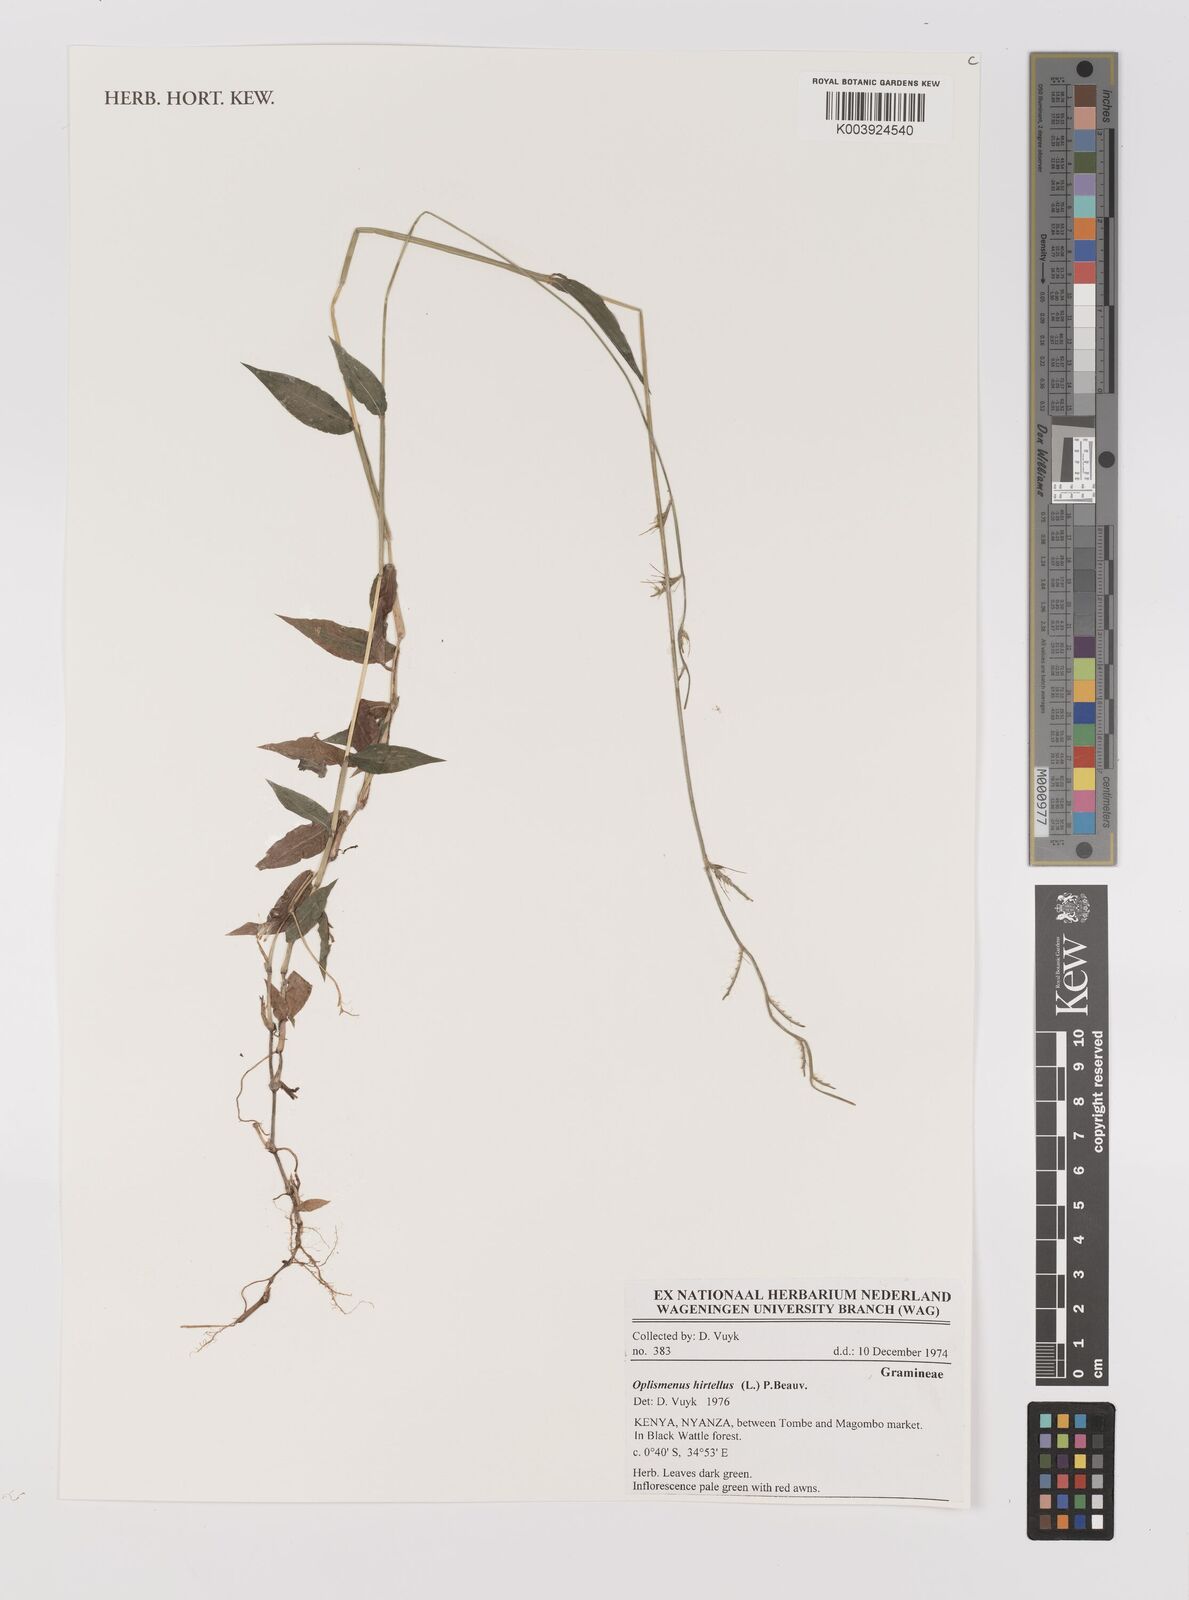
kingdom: Plantae
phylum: Tracheophyta
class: Liliopsida
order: Poales
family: Poaceae
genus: Oplismenus
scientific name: Oplismenus hirtellus
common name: Basketgrass
